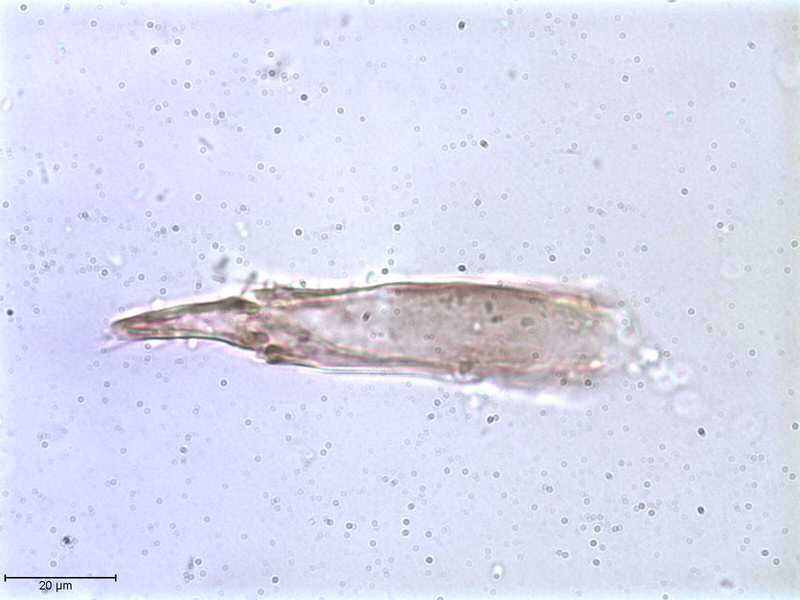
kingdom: Animalia
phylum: Arthropoda
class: Arachnida
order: Mesostigmata
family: Halarachnidae
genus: Orthohalarachne
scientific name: Orthohalarachne letalis
